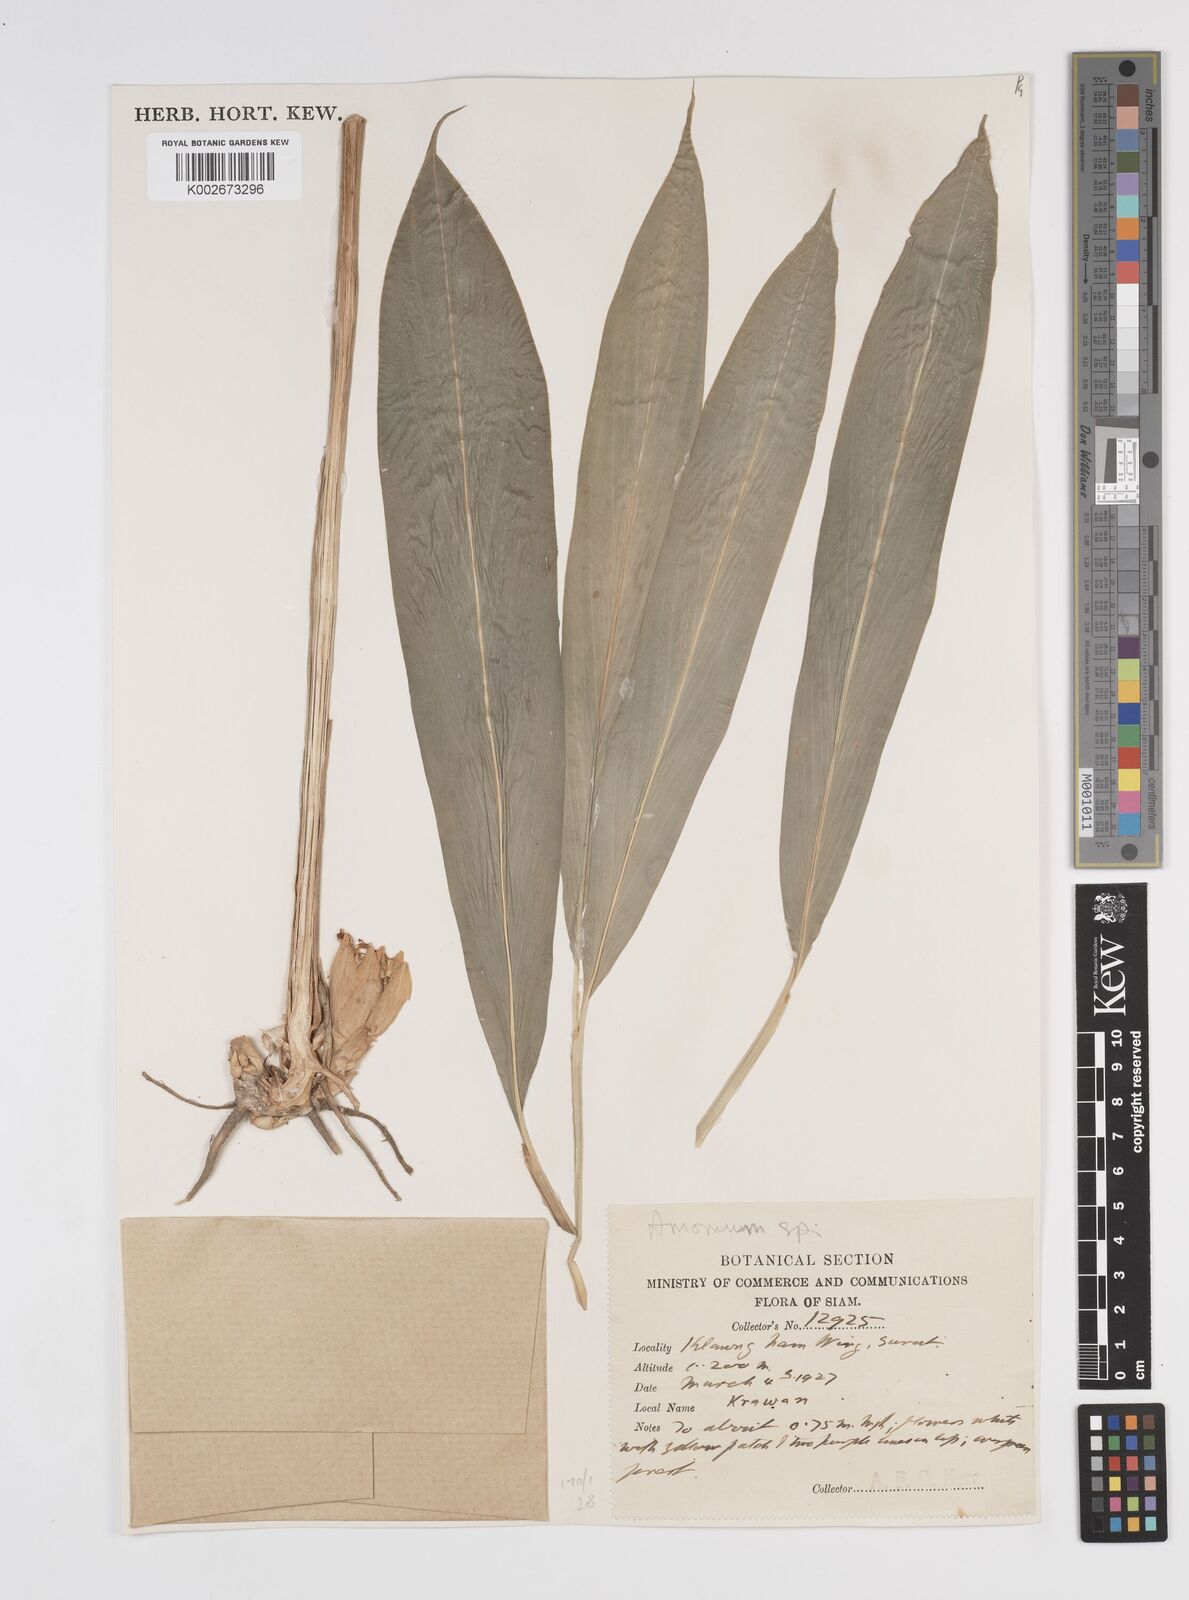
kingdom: Plantae
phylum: Tracheophyta
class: Liliopsida
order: Zingiberales
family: Zingiberaceae
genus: Amomum
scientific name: Amomum
